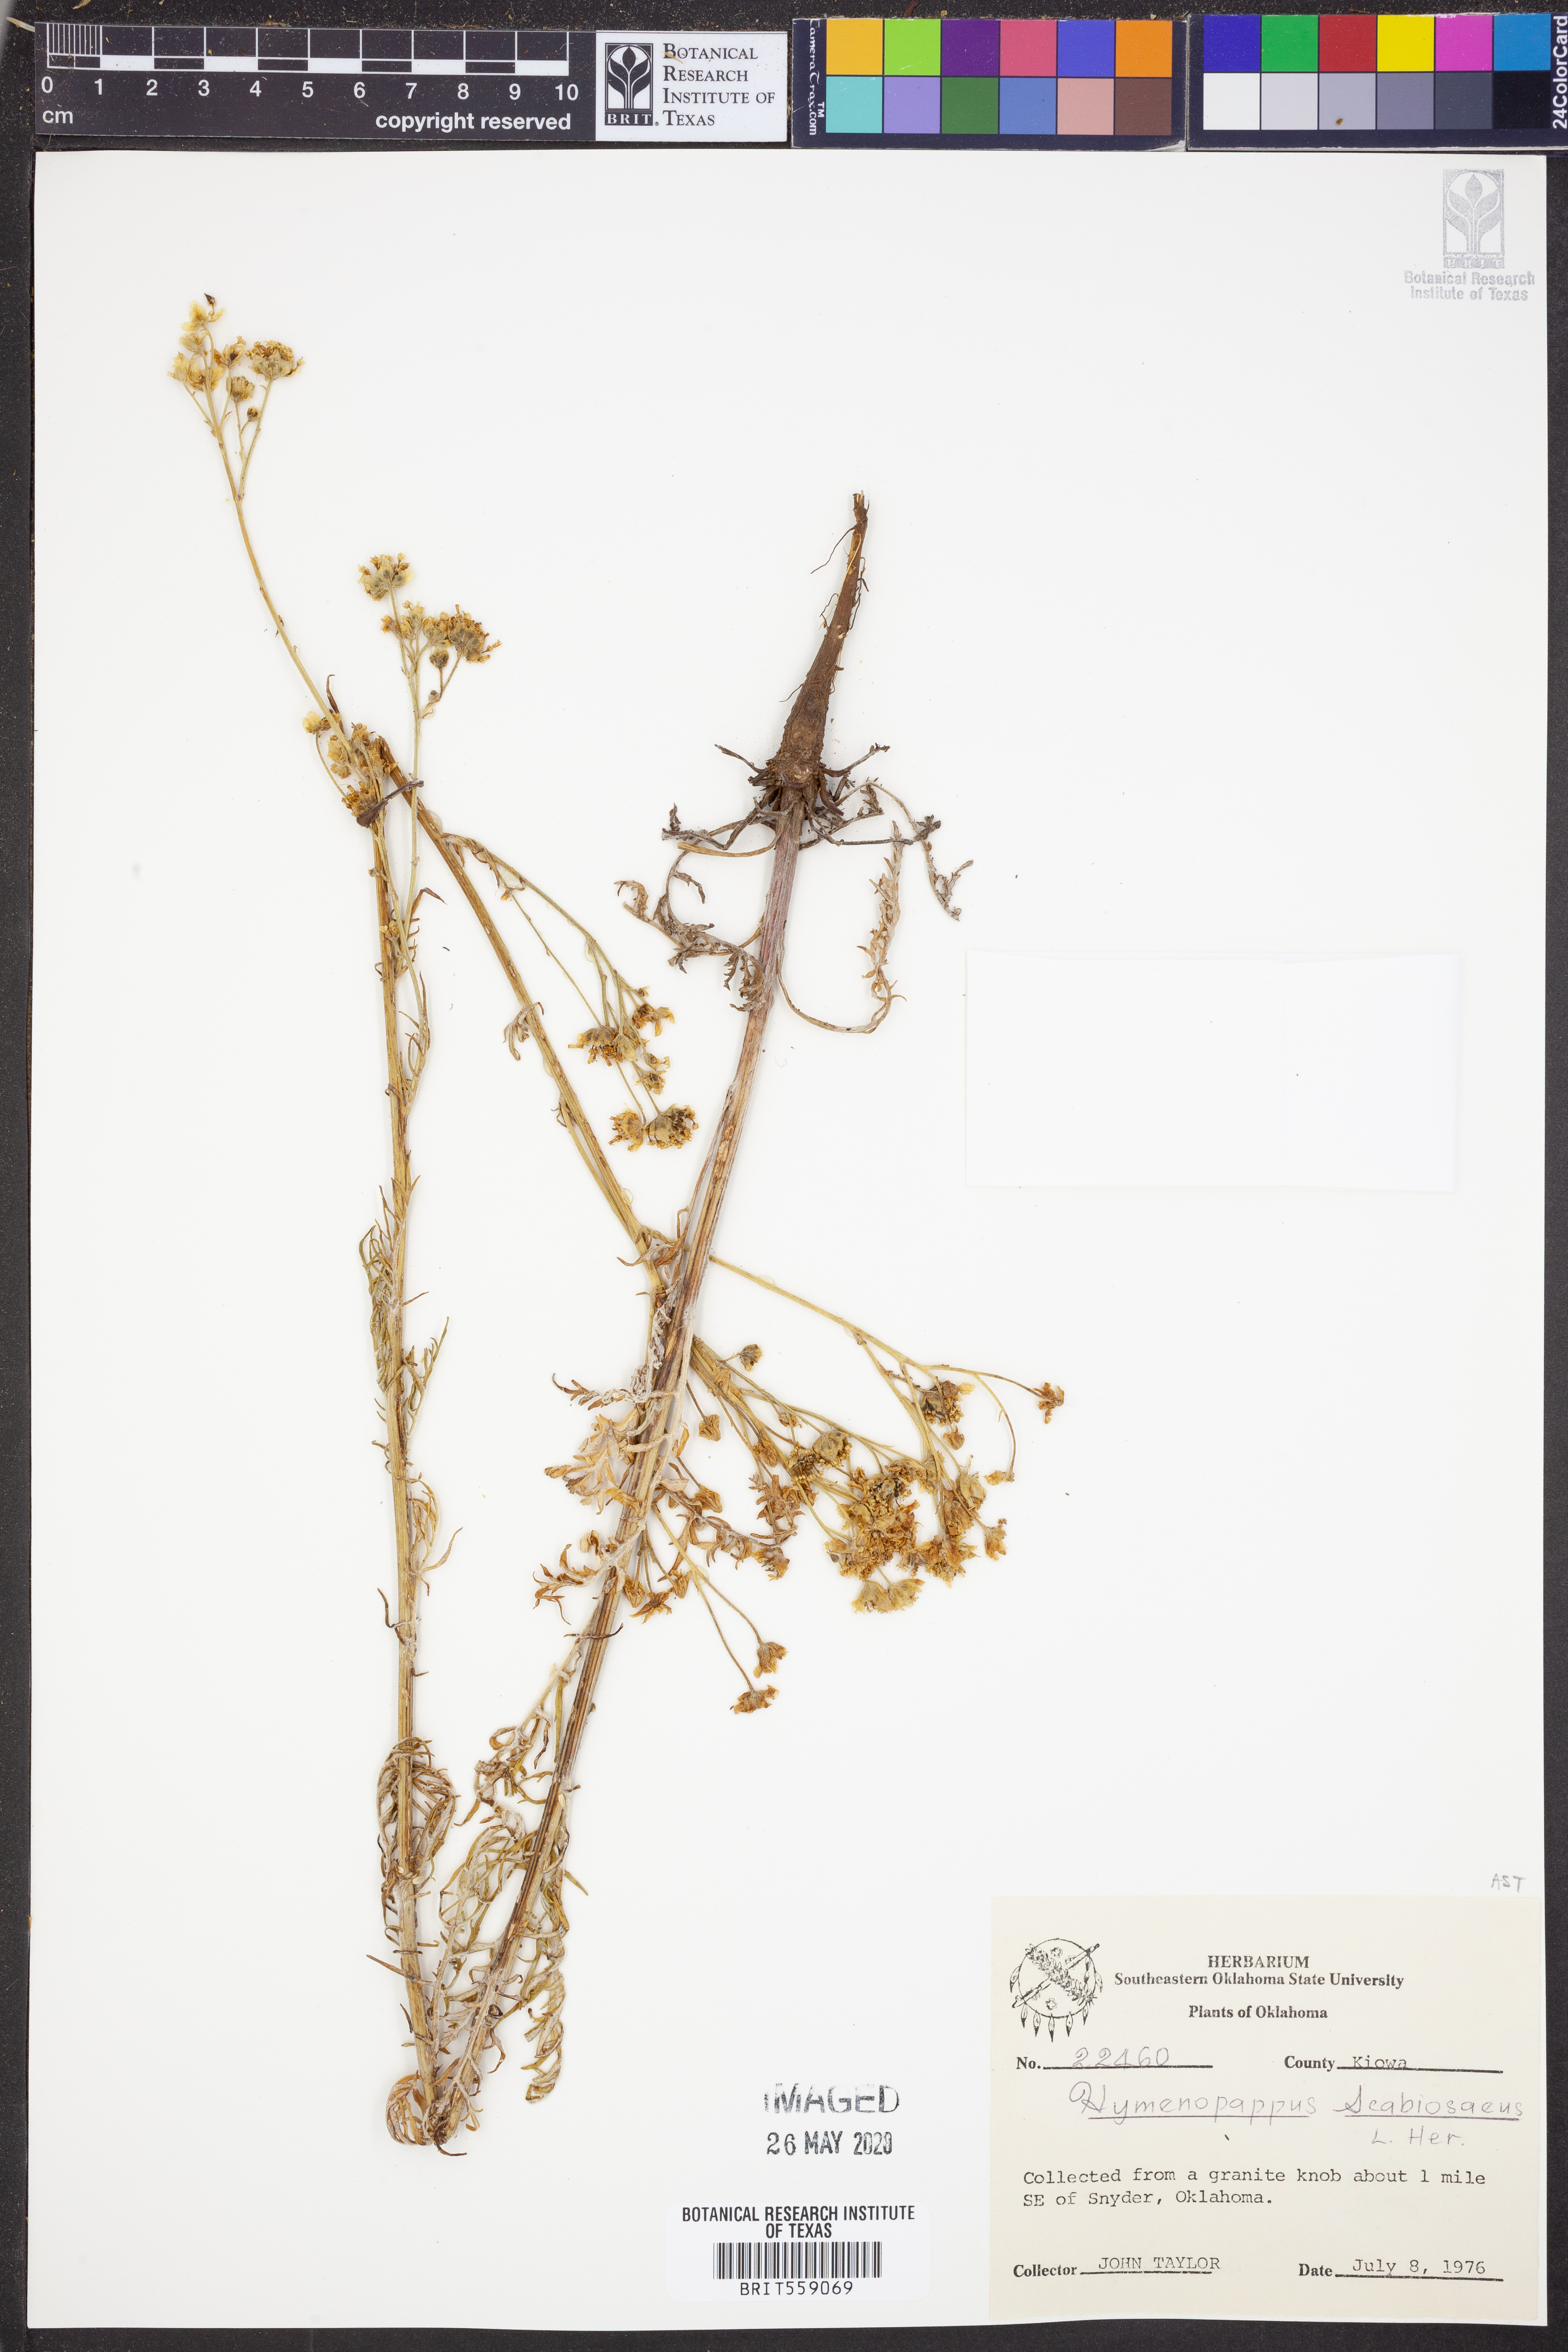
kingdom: Plantae
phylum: Tracheophyta
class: Magnoliopsida
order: Asterales
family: Asteraceae
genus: Hymenopappus
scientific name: Hymenopappus scabiosaeus
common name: Carolina woollywhite
